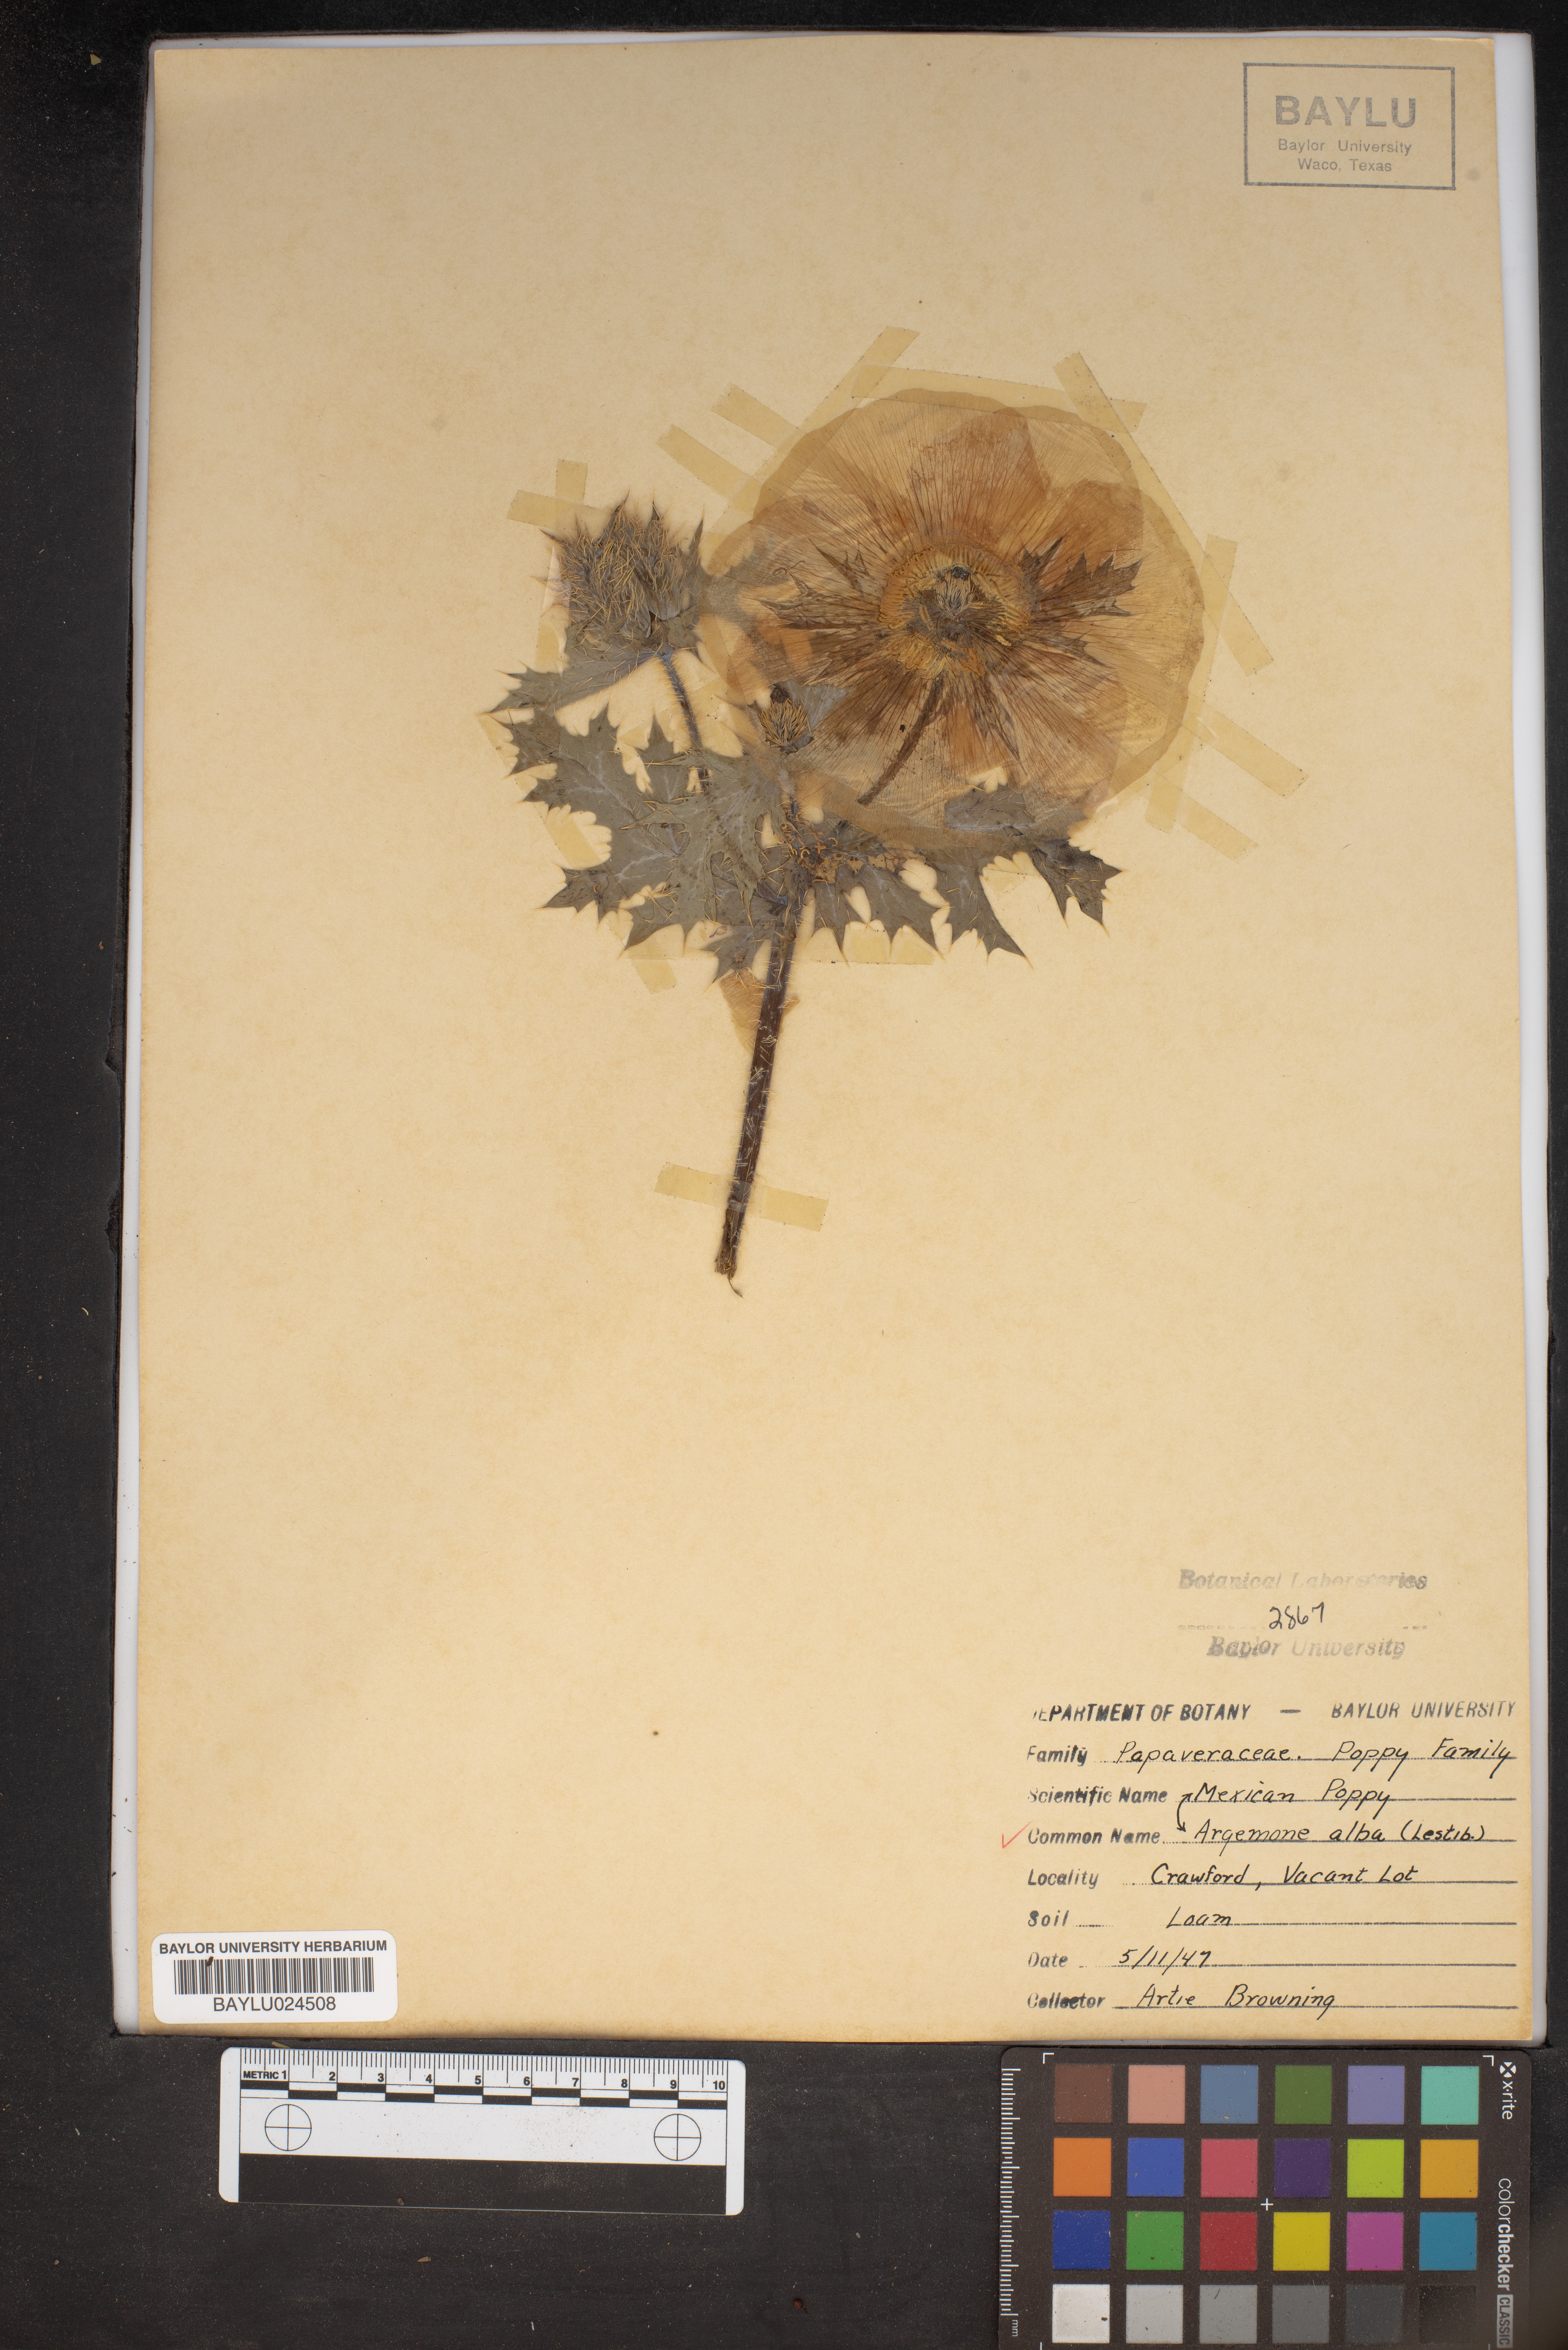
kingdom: Plantae
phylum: Tracheophyta
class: Magnoliopsida
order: Ranunculales
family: Papaveraceae
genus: Argemone
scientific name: Argemone albiflora
